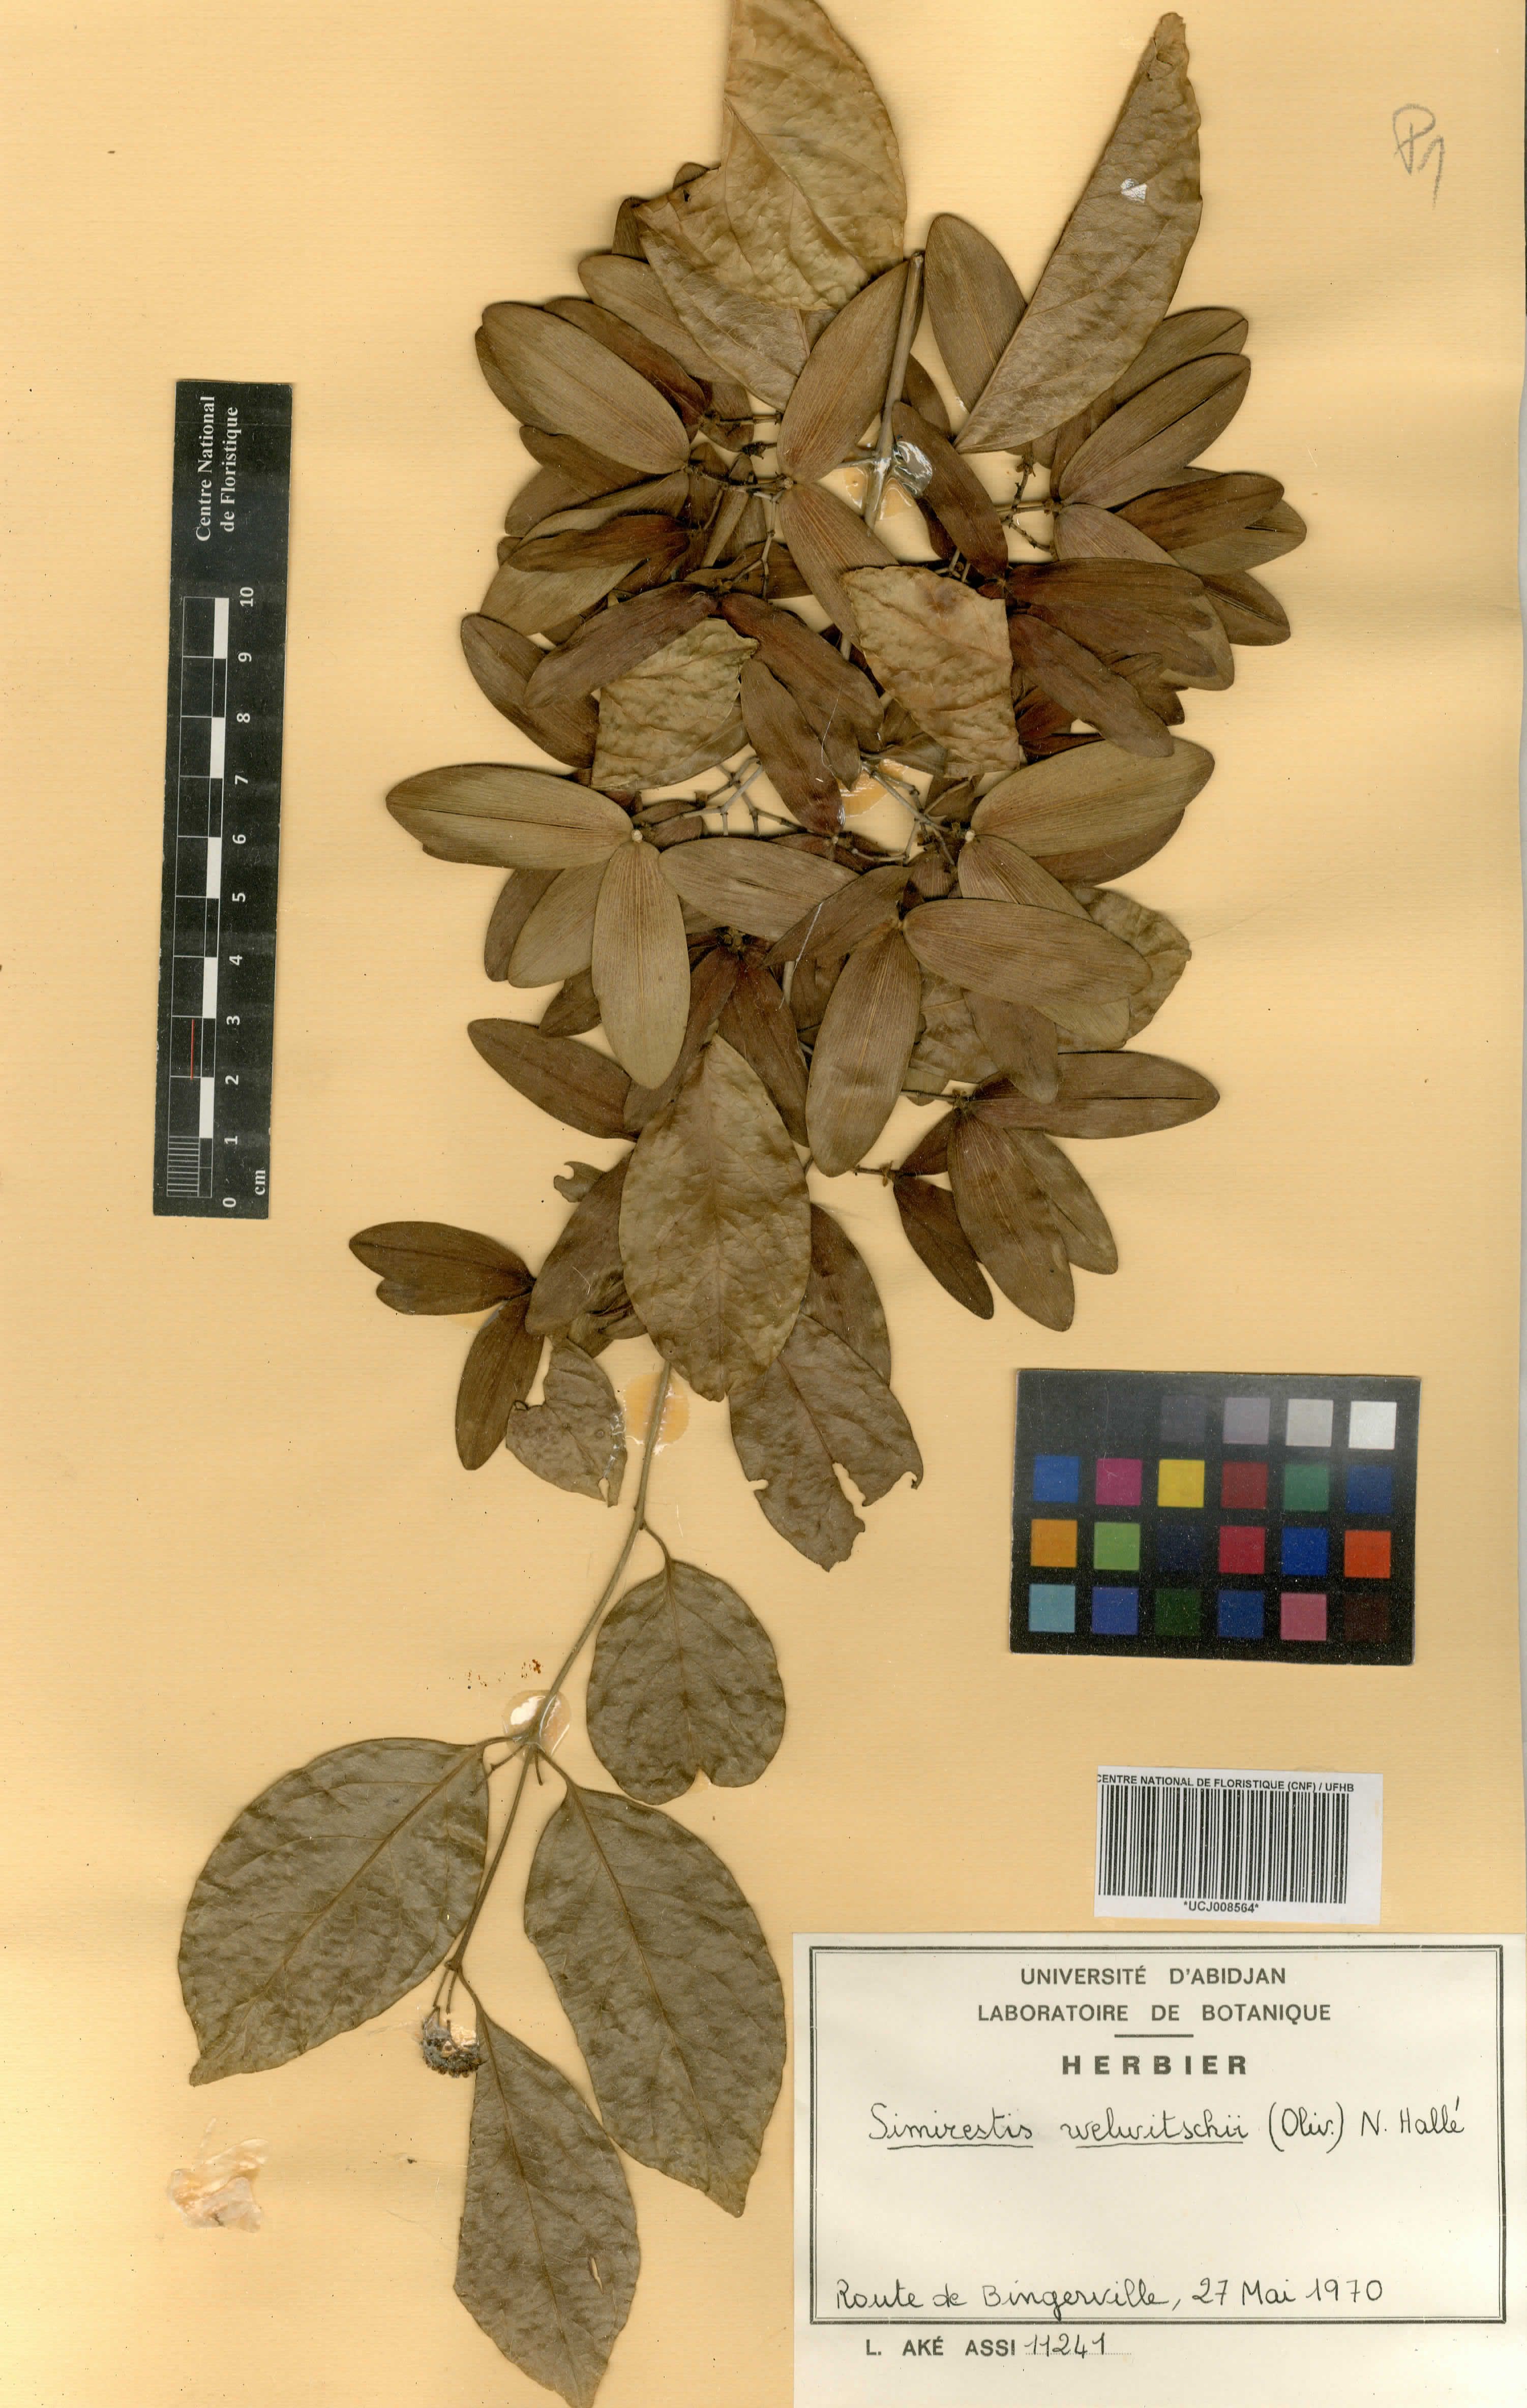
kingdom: Plantae
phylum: Tracheophyta
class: Magnoliopsida
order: Celastrales
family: Celastraceae
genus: Simicratea
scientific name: Simicratea welwitschii
